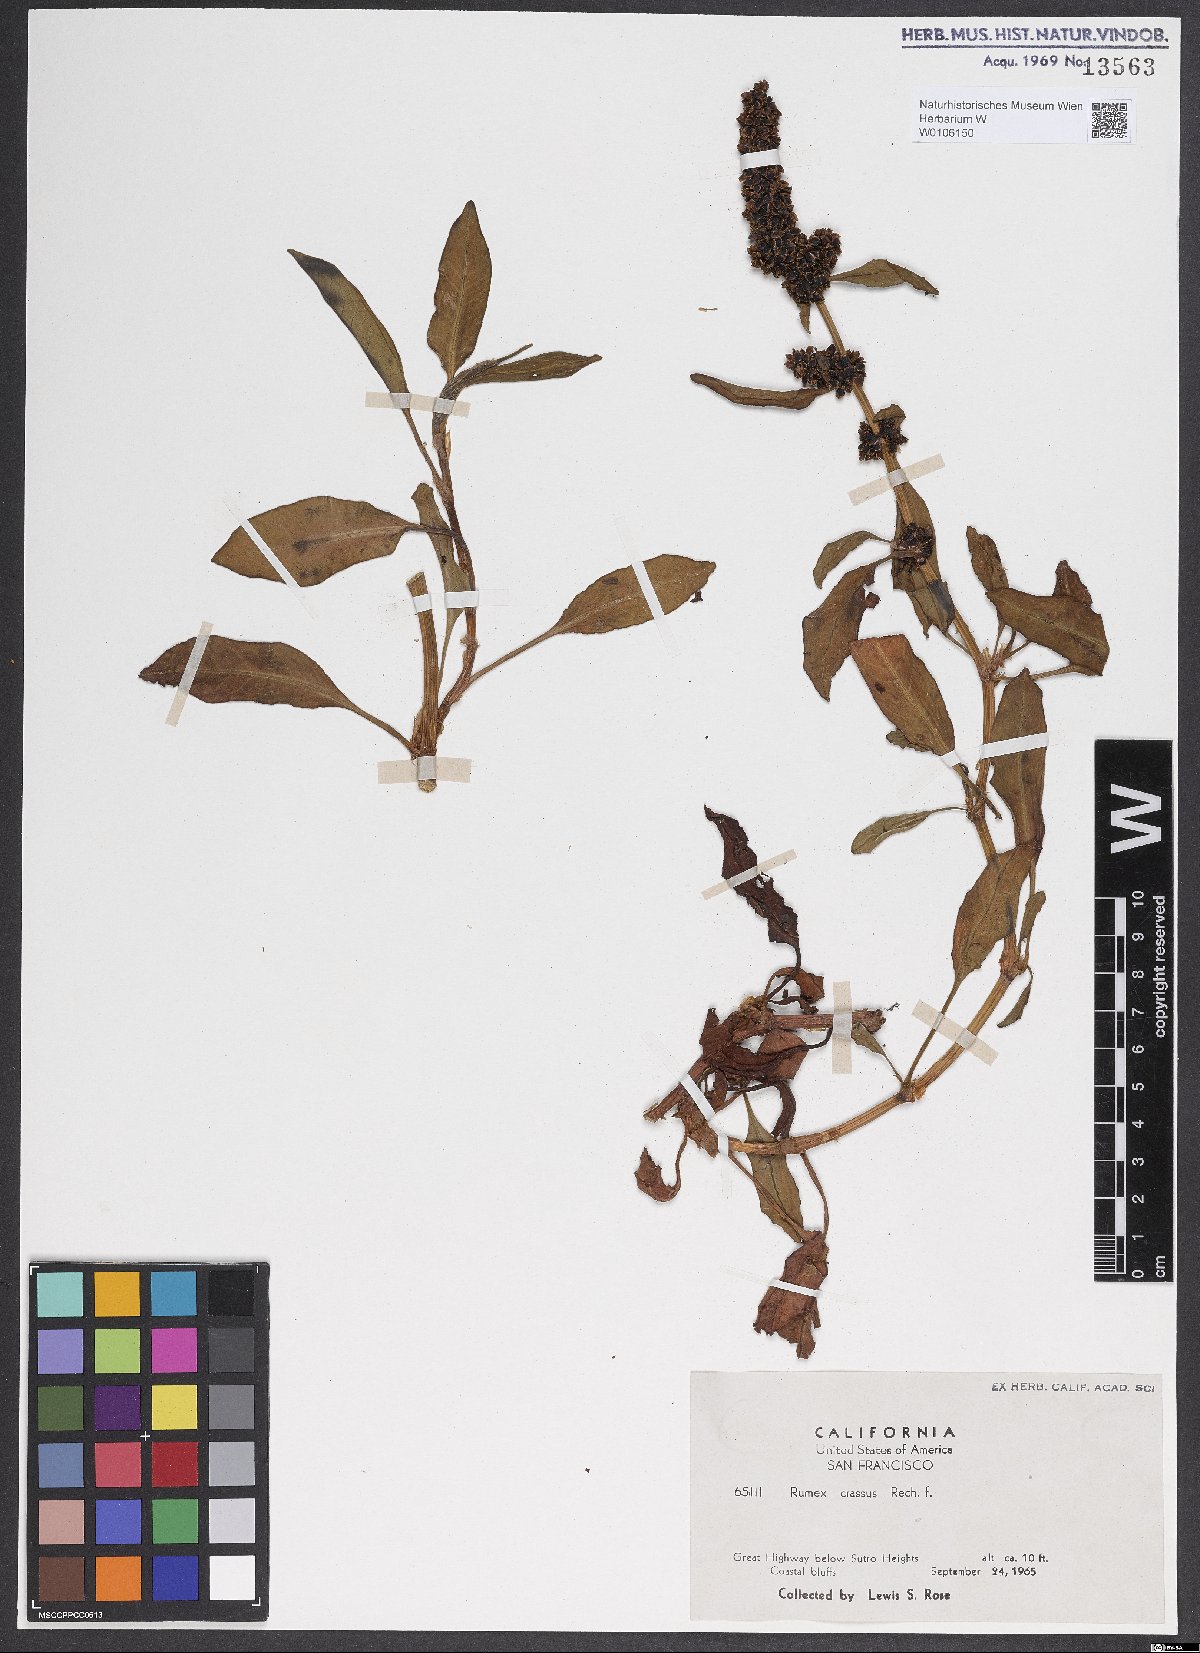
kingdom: Plantae
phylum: Tracheophyta
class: Magnoliopsida
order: Caryophyllales
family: Polygonaceae
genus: Rumex
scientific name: Rumex crassus
